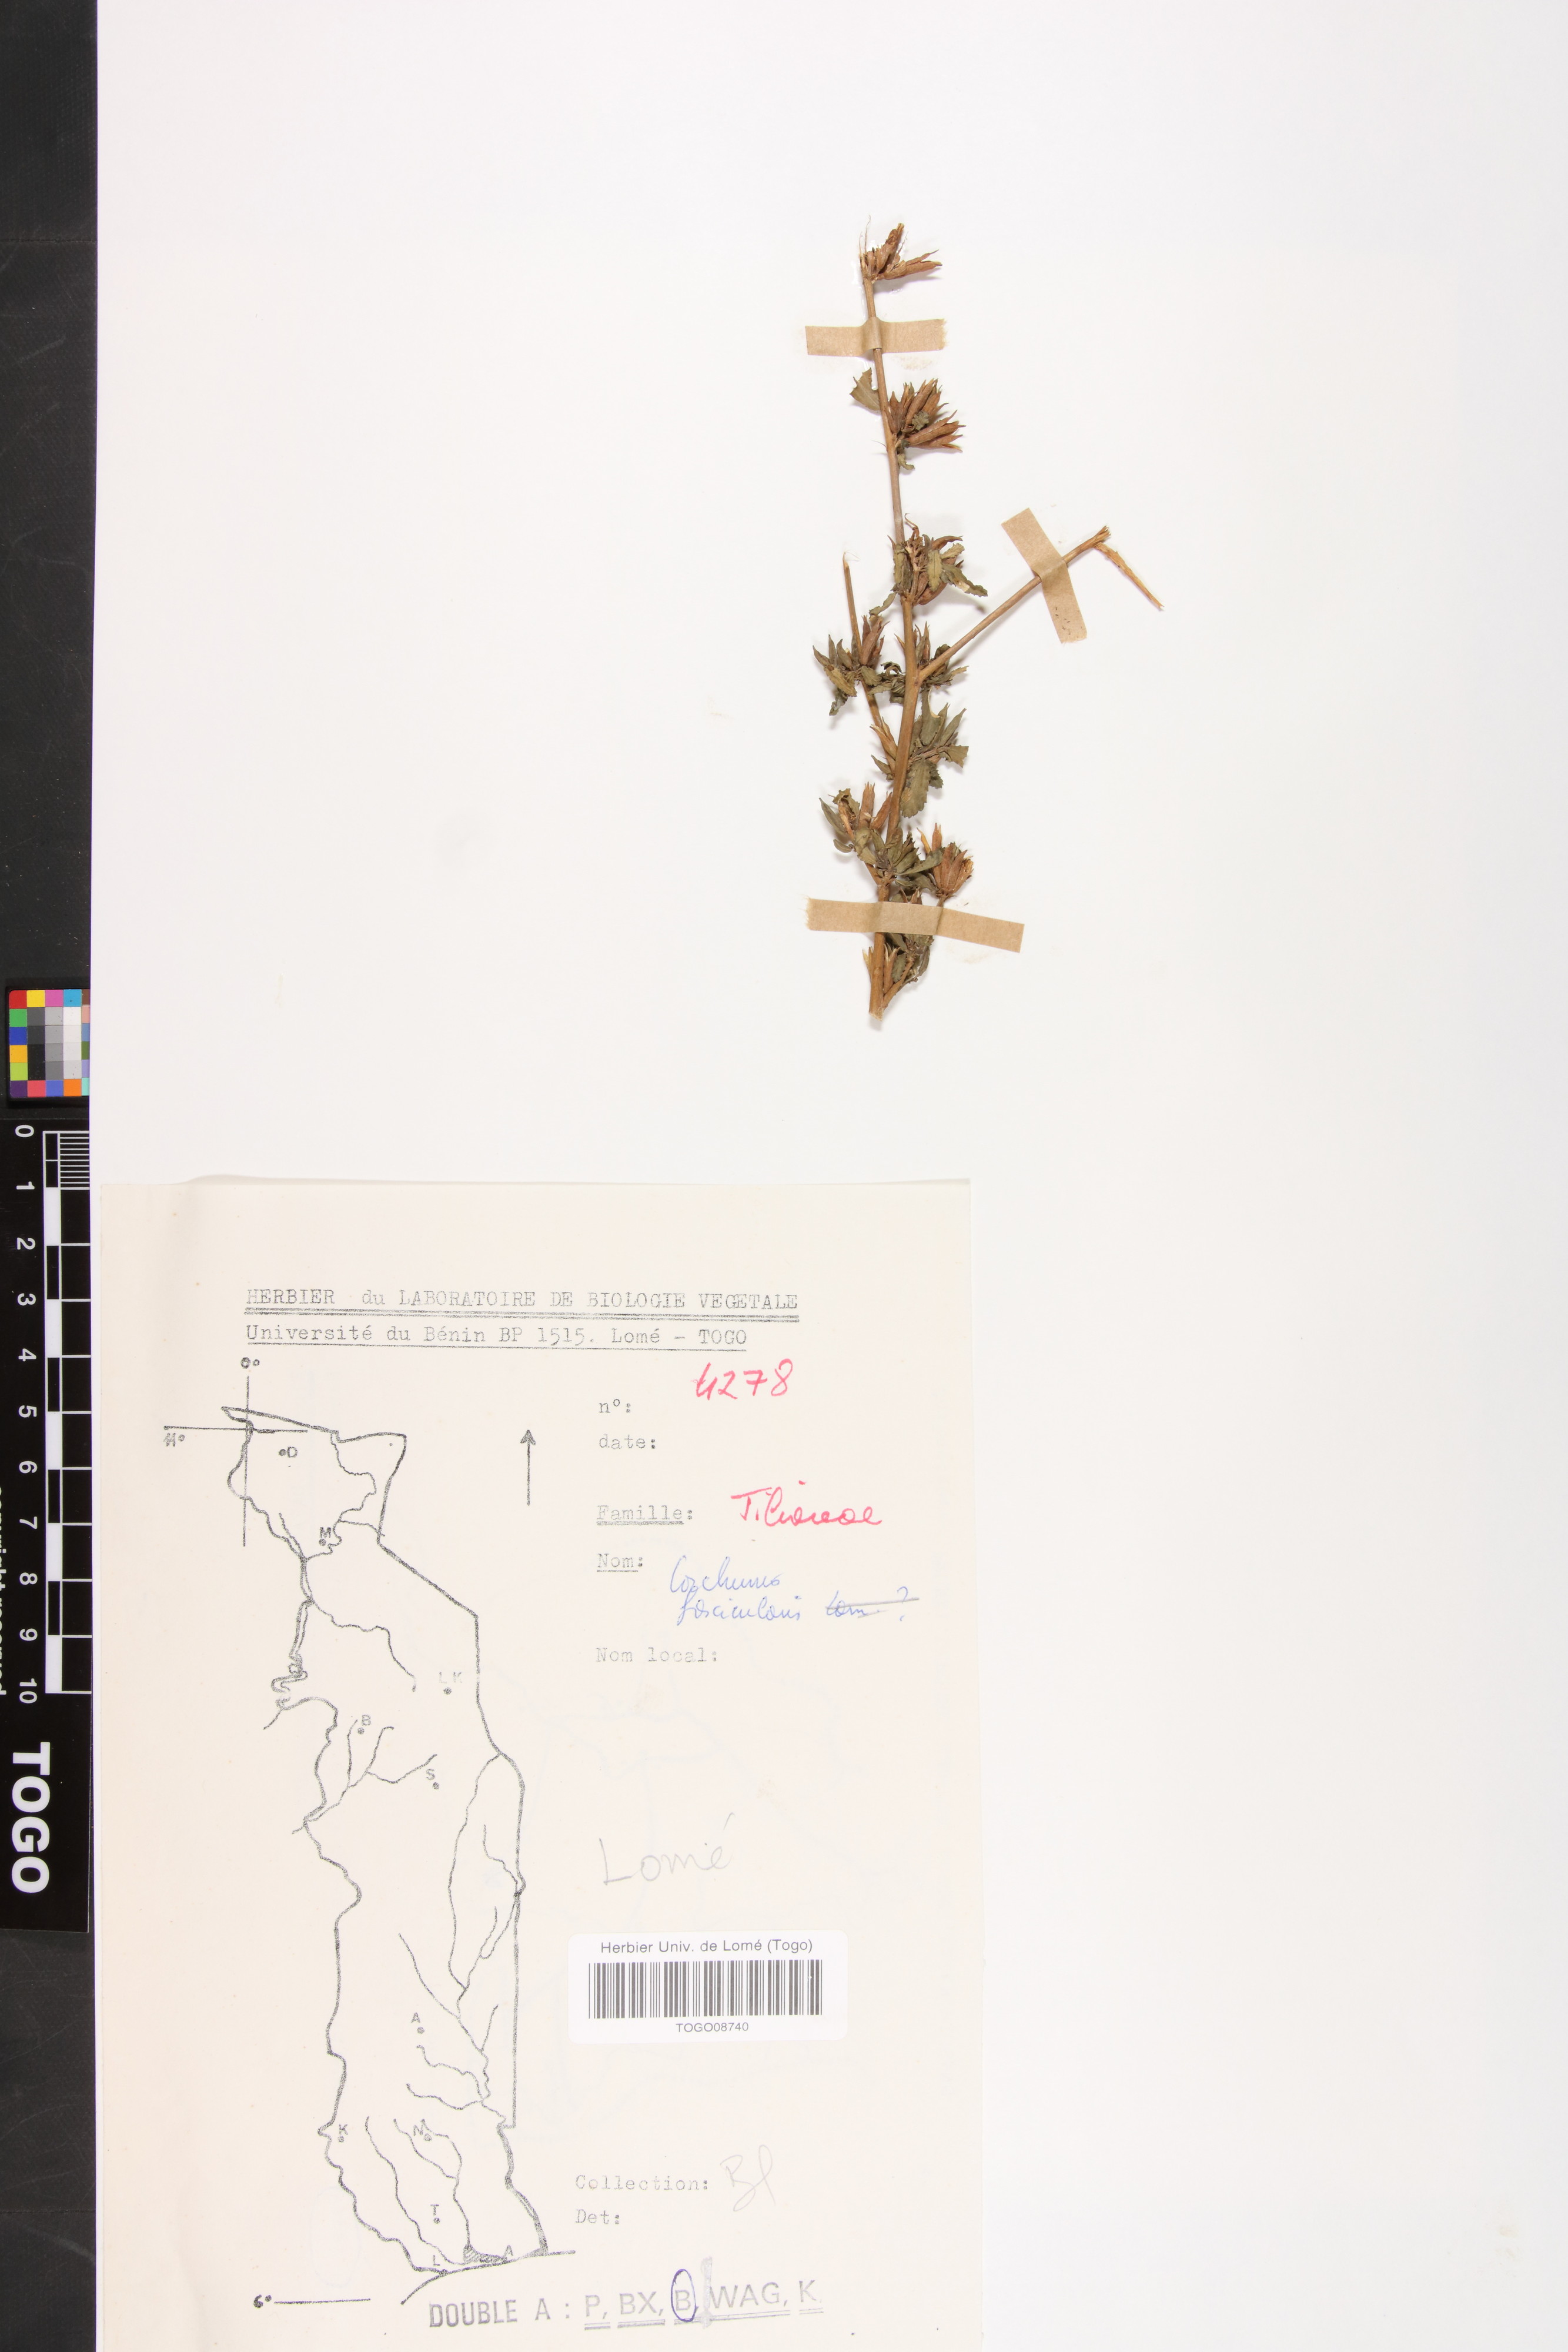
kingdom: Plantae
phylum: Tracheophyta
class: Magnoliopsida
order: Malvales
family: Malvaceae
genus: Corchorus
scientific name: Corchorus fascicularis
